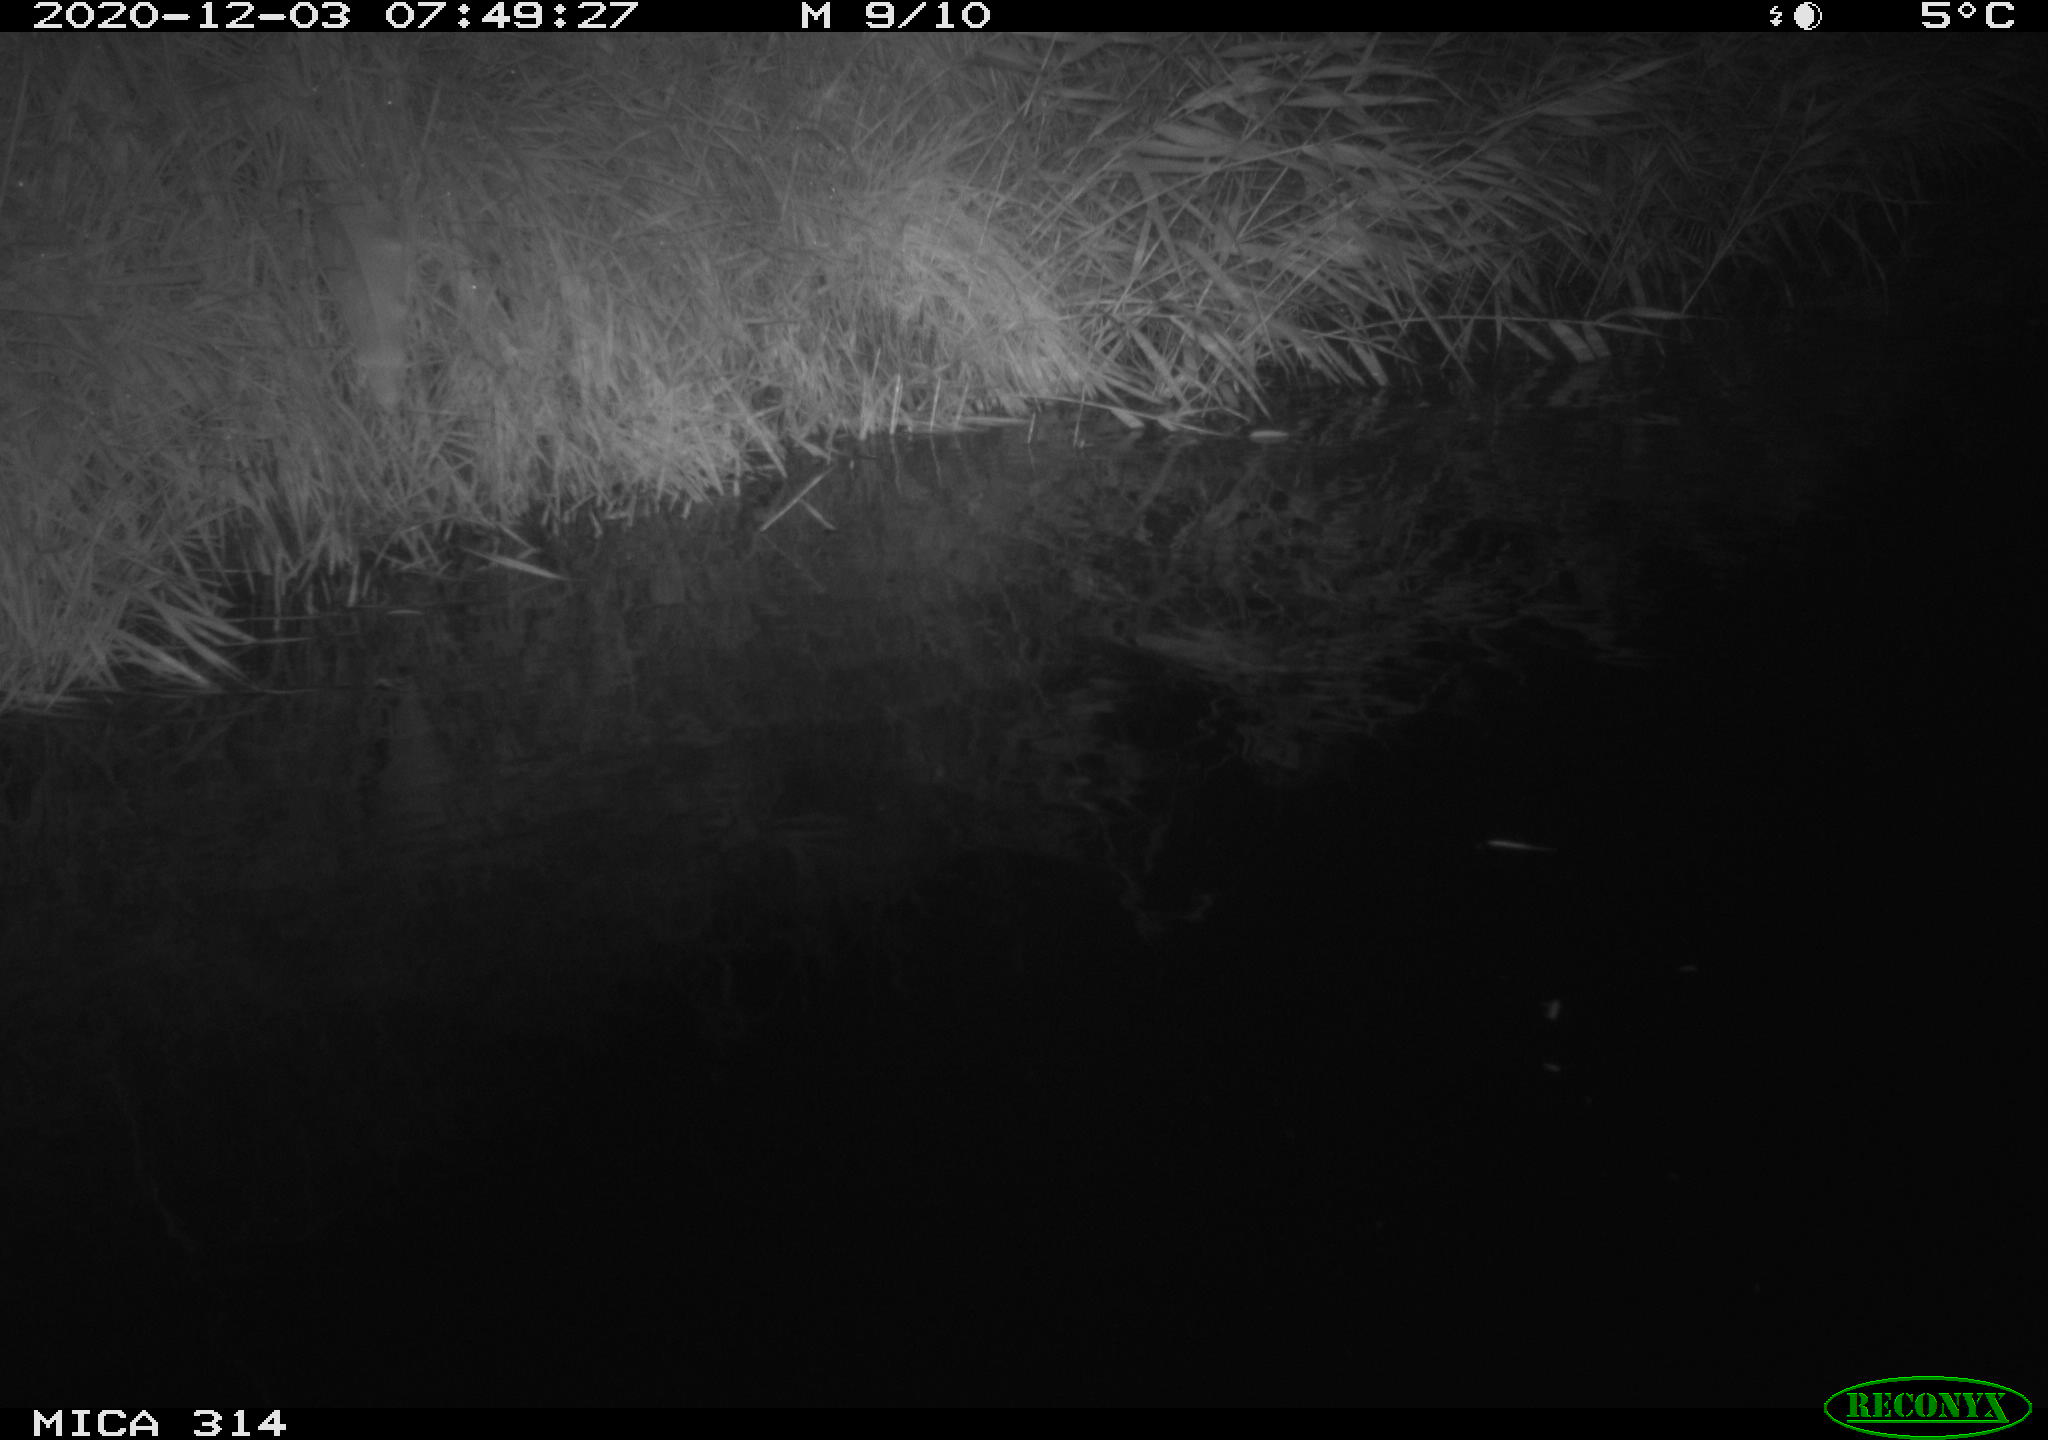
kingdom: Animalia
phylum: Chordata
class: Aves
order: Gruiformes
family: Rallidae
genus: Gallinula
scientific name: Gallinula chloropus
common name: Common moorhen
